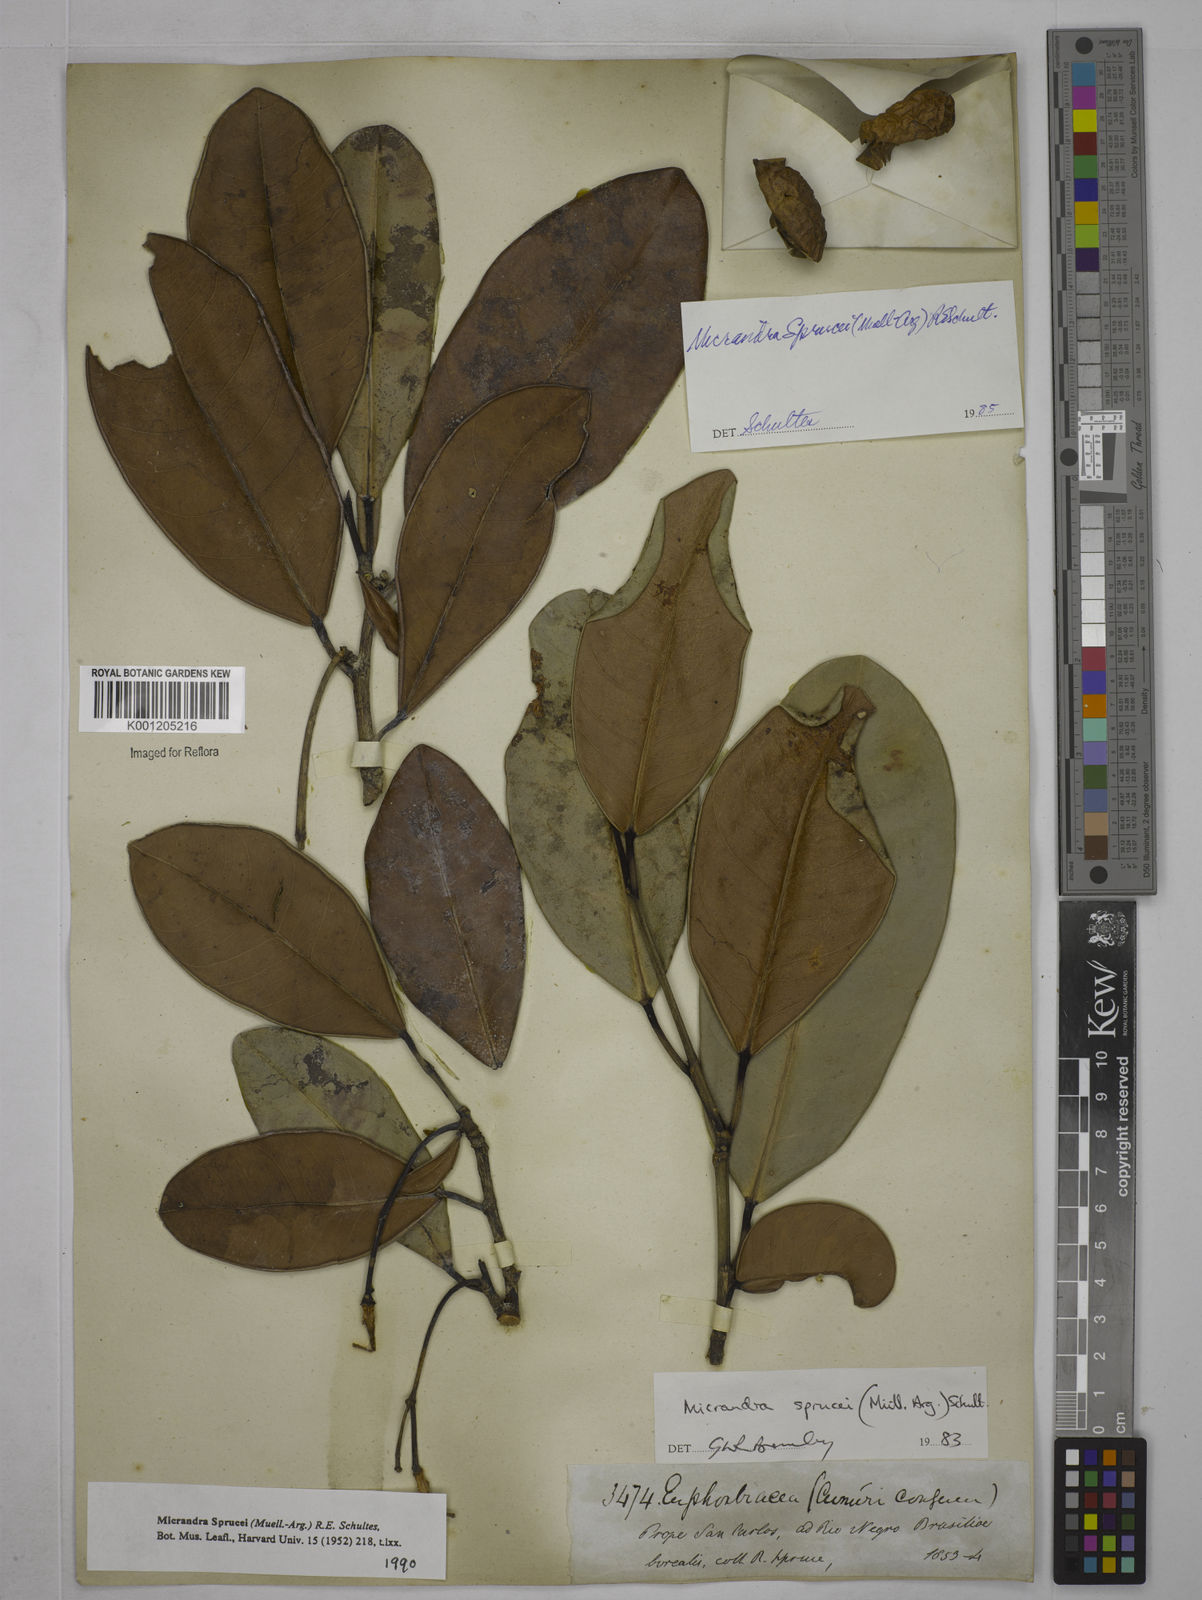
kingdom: Plantae
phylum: Tracheophyta
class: Magnoliopsida
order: Malpighiales
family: Euphorbiaceae
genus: Micrandra
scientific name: Micrandra
